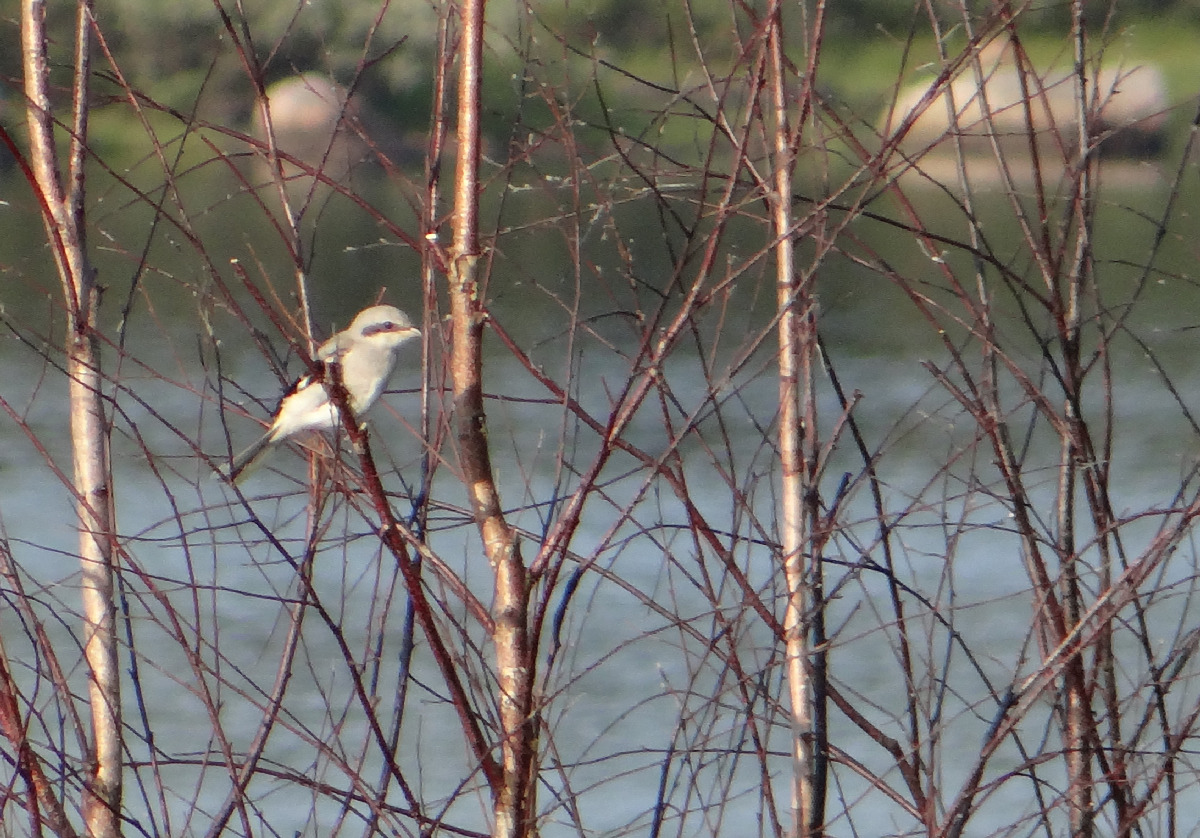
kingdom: Animalia
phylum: Chordata
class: Aves
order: Passeriformes
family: Laniidae
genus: Lanius
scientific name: Lanius excubitor
